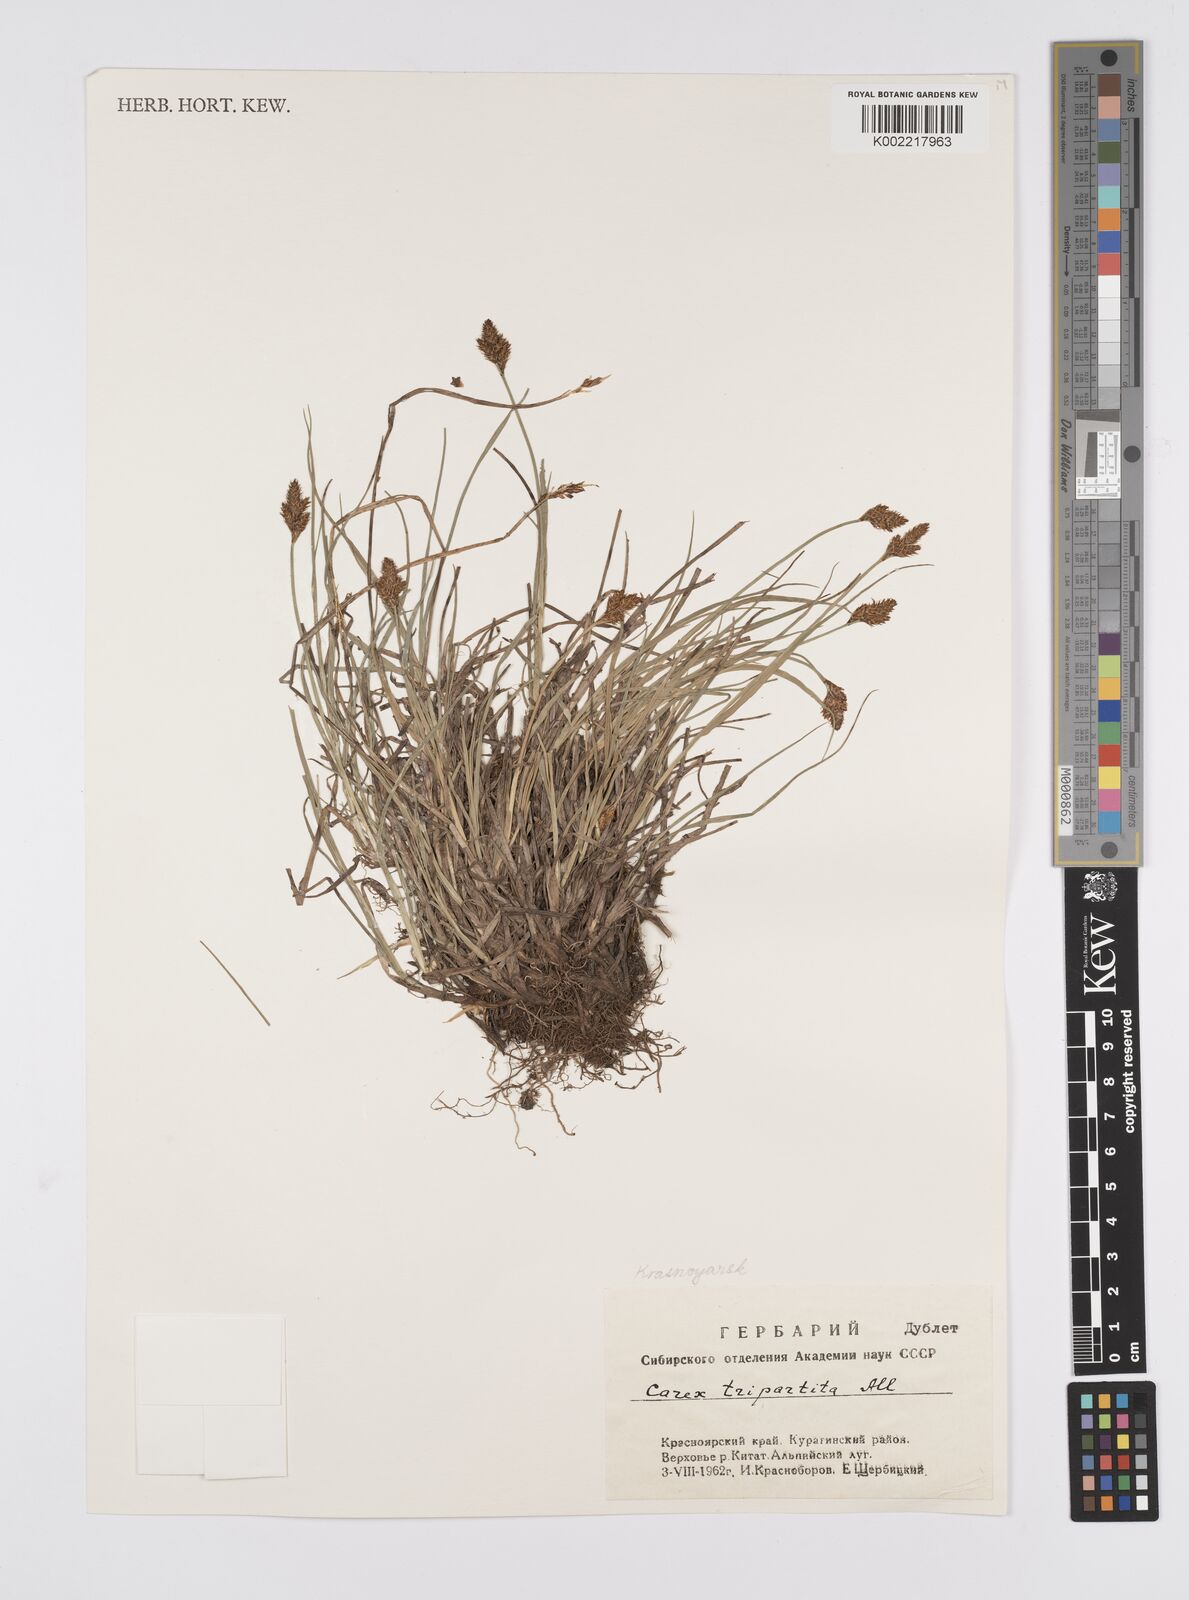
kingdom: Plantae
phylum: Tracheophyta
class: Liliopsida
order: Poales
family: Cyperaceae
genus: Carex
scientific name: Carex curvula
